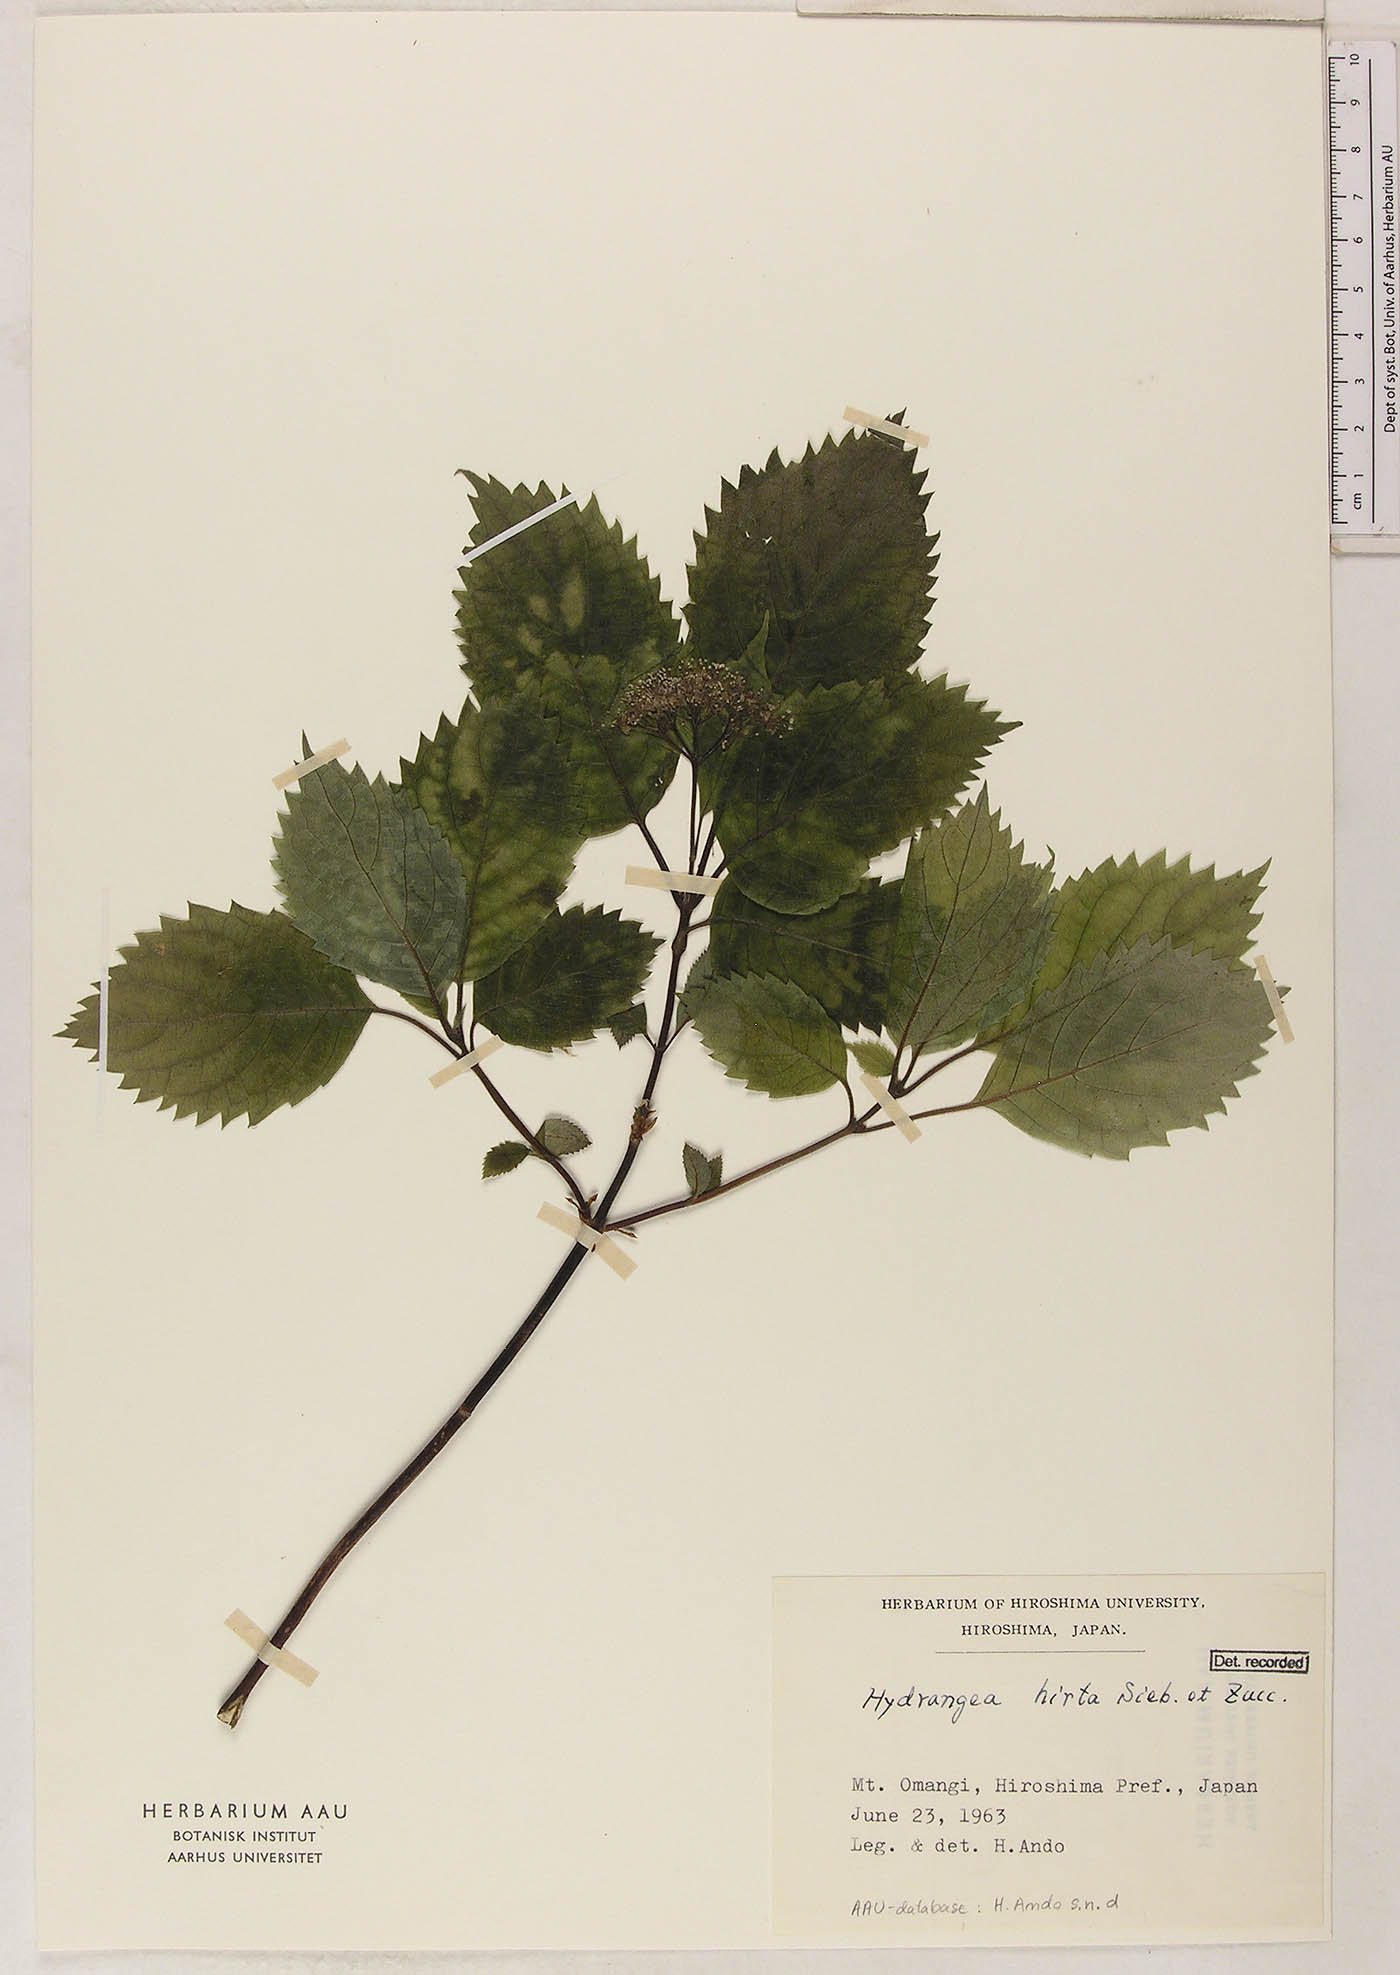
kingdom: Plantae
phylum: Tracheophyta
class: Magnoliopsida
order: Cornales
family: Hydrangeaceae
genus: Hydrangea
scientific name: Hydrangea hirta
